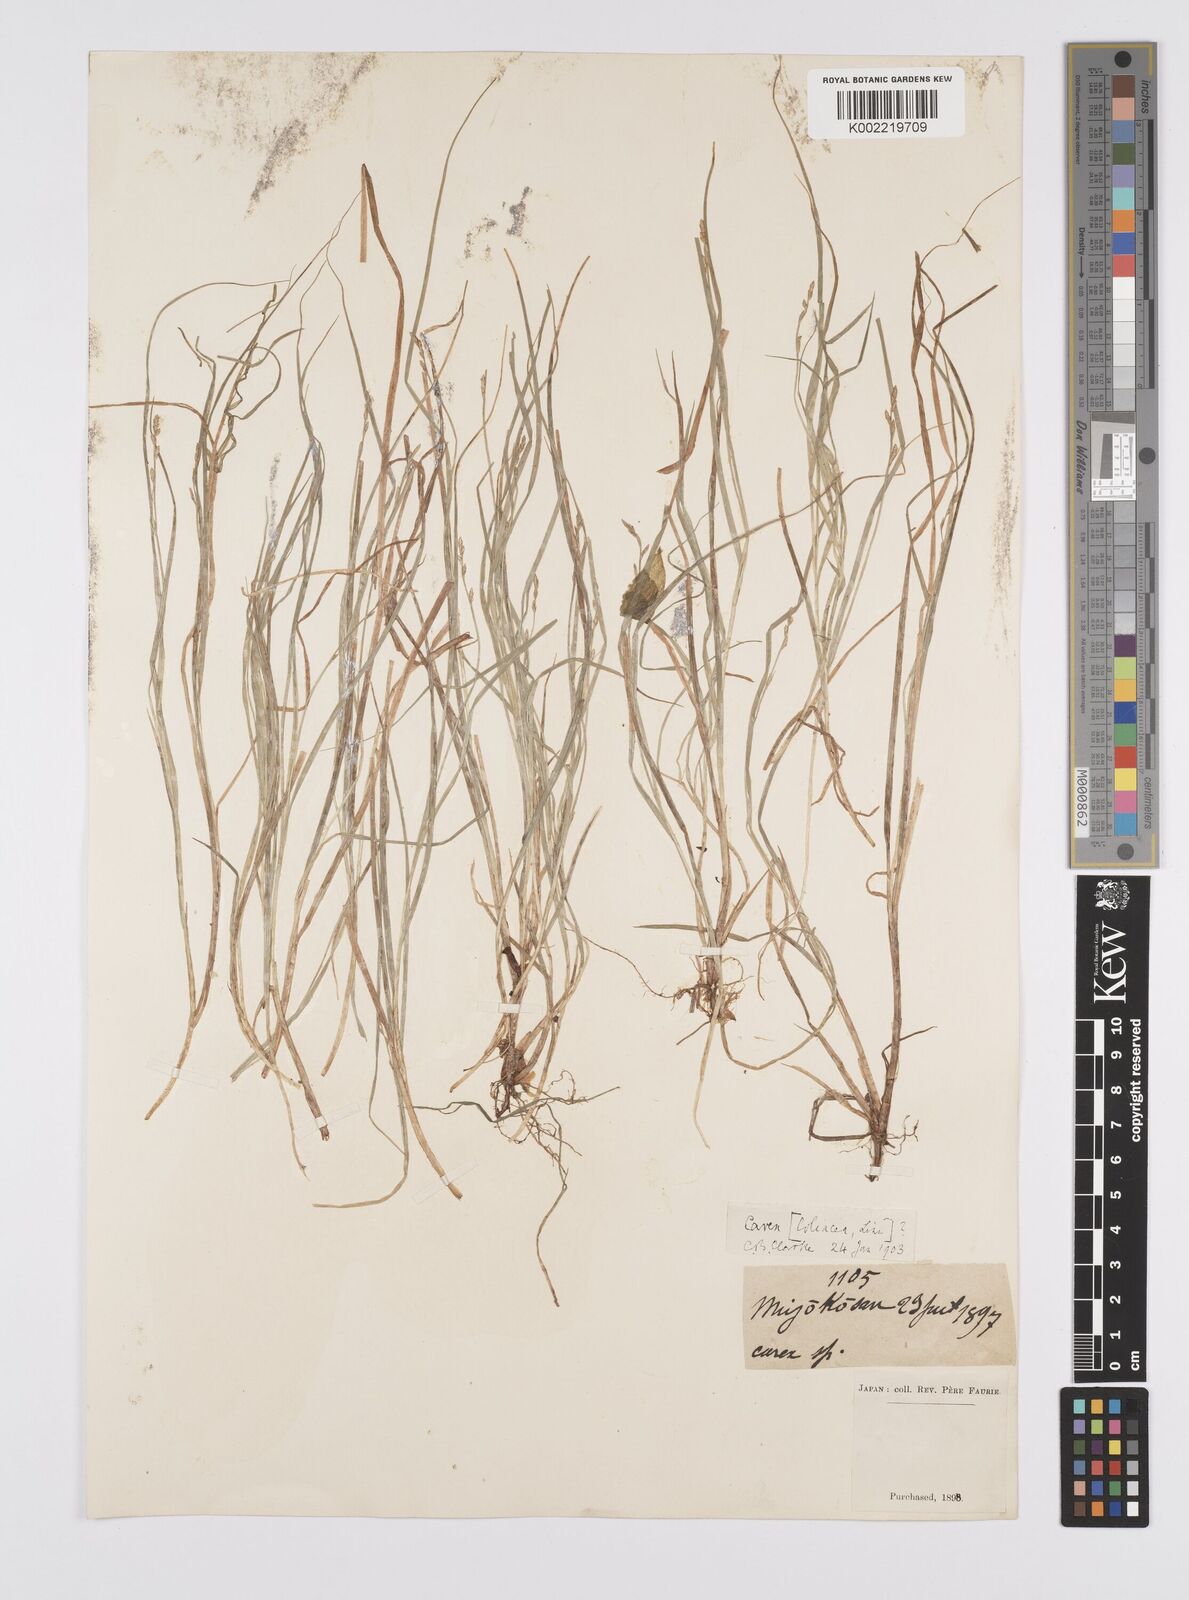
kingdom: Plantae
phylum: Tracheophyta
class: Liliopsida
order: Poales
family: Cyperaceae
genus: Carex
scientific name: Carex loliacea
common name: Ryegrass sedge
